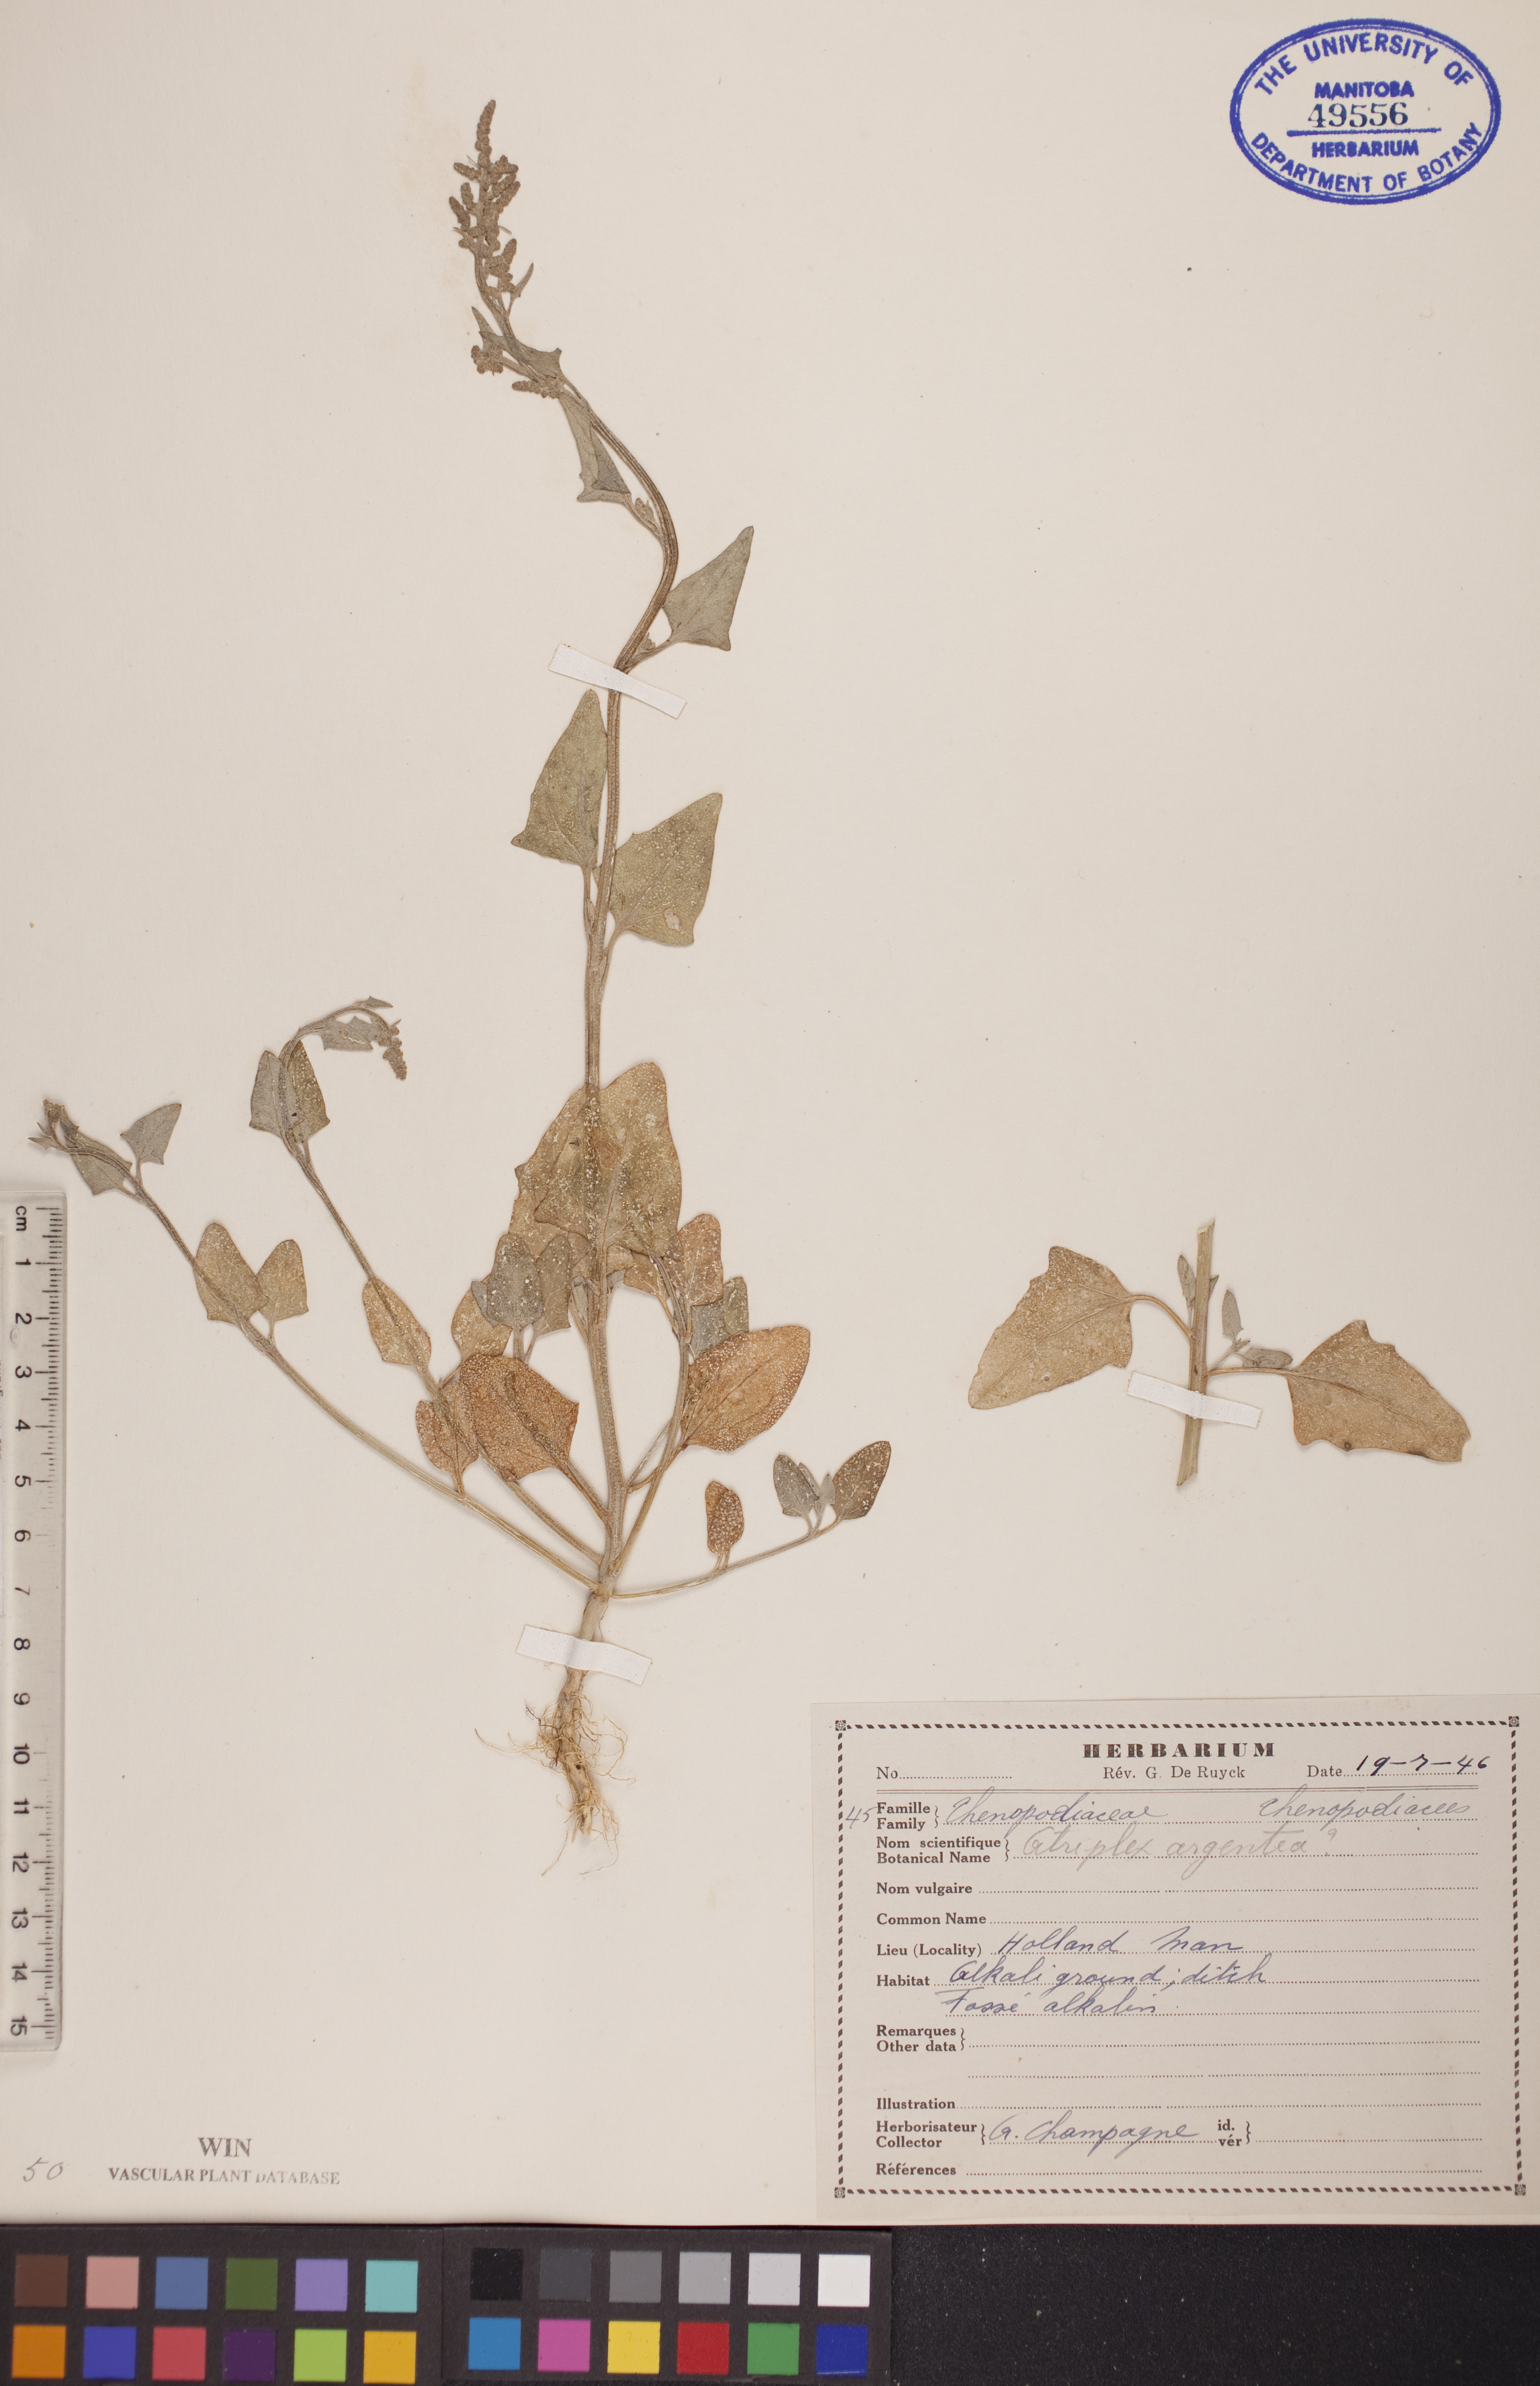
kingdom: Plantae
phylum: Tracheophyta
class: Magnoliopsida
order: Caryophyllales
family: Amaranthaceae
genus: Atriplex
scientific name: Atriplex argentea
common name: Silverscale
